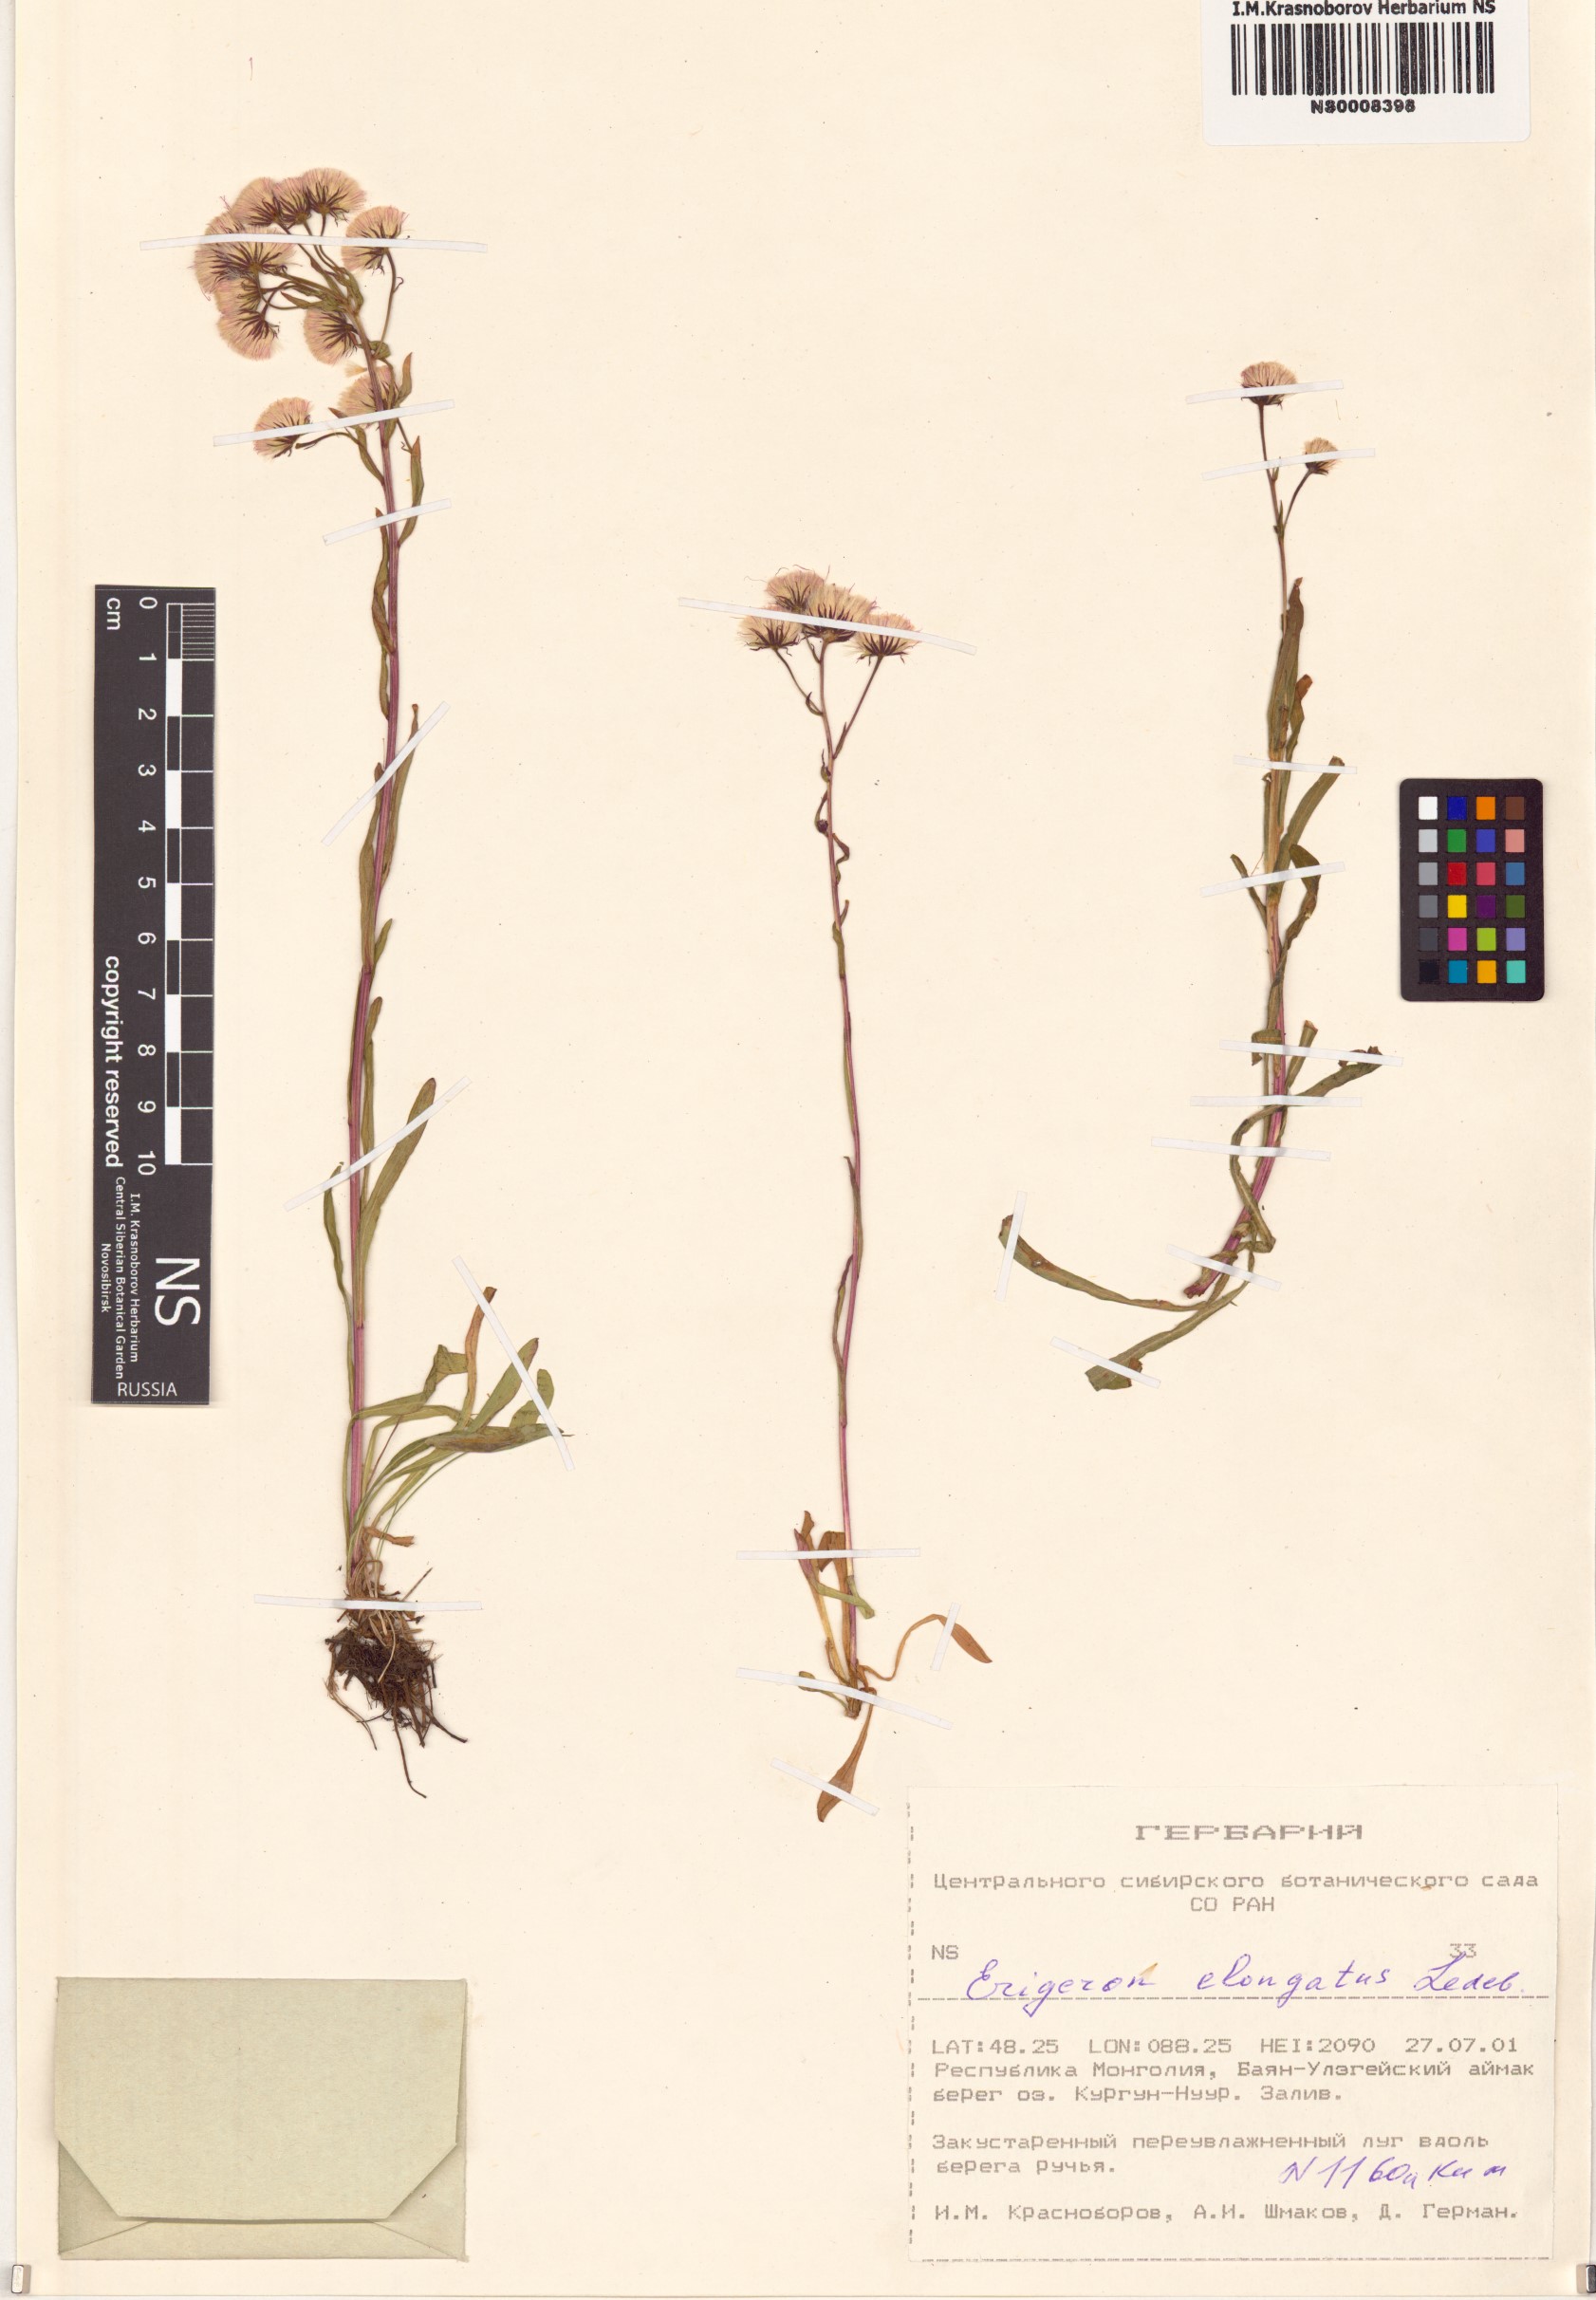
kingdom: Plantae
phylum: Tracheophyta
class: Magnoliopsida
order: Asterales
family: Asteraceae
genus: Erigeron
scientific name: Erigeron politus
